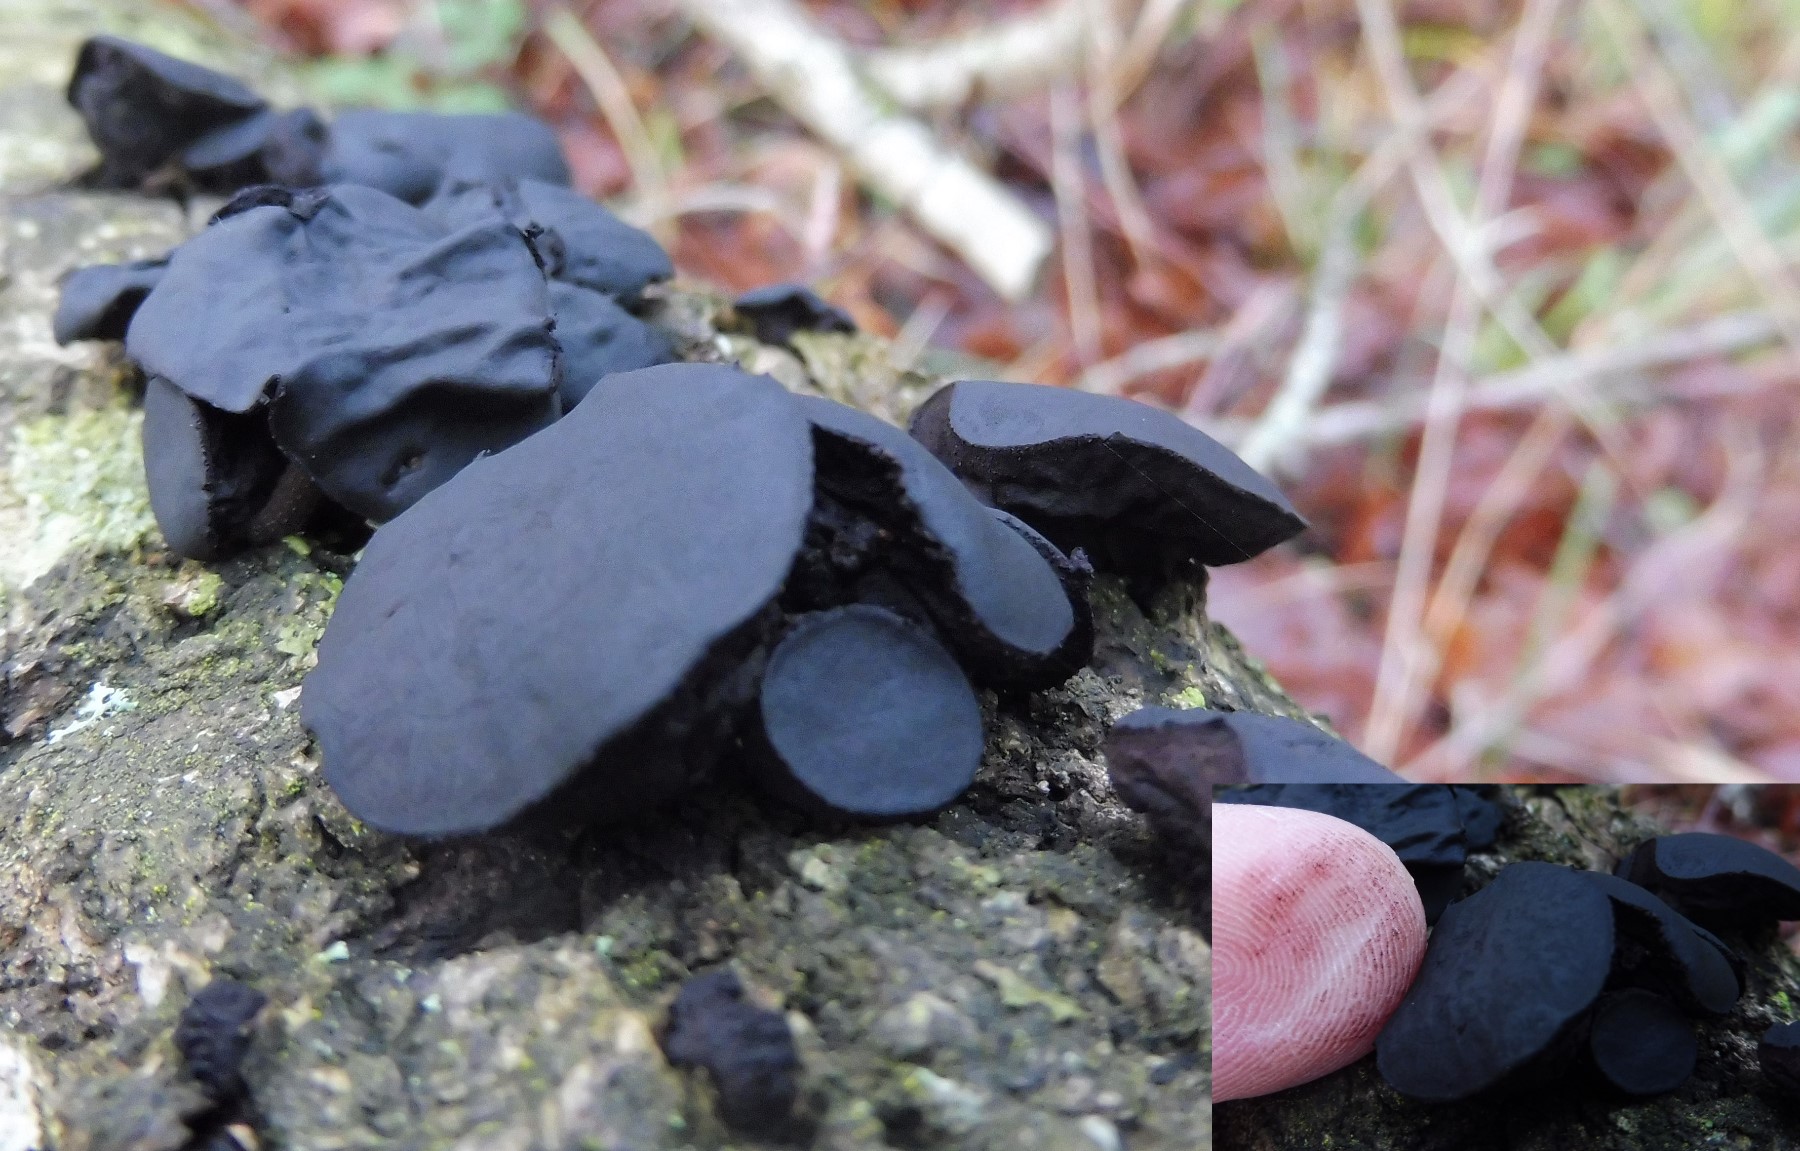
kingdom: Fungi
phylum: Ascomycota
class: Leotiomycetes
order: Phacidiales
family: Phacidiaceae
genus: Bulgaria
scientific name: Bulgaria inquinans
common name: afsmittende topsvamp
